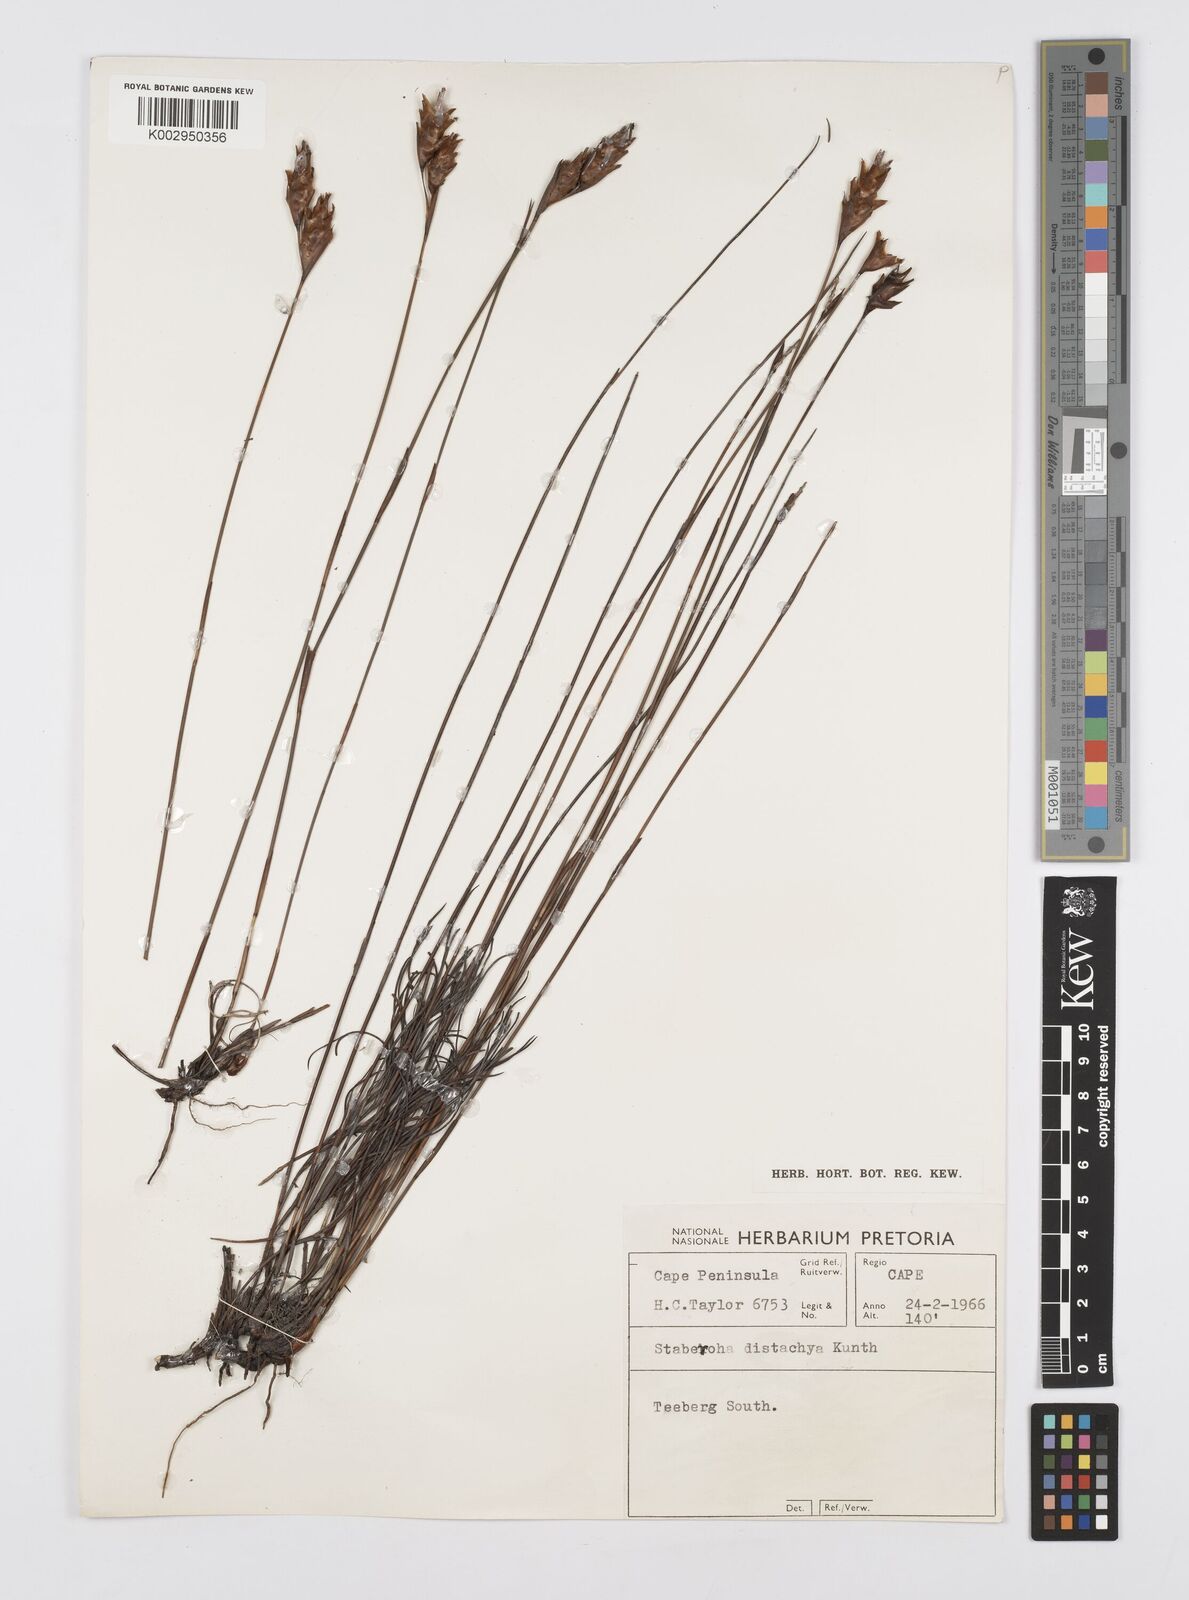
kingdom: Plantae
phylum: Tracheophyta
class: Liliopsida
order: Poales
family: Restionaceae
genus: Staberoha
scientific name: Staberoha distachyos
